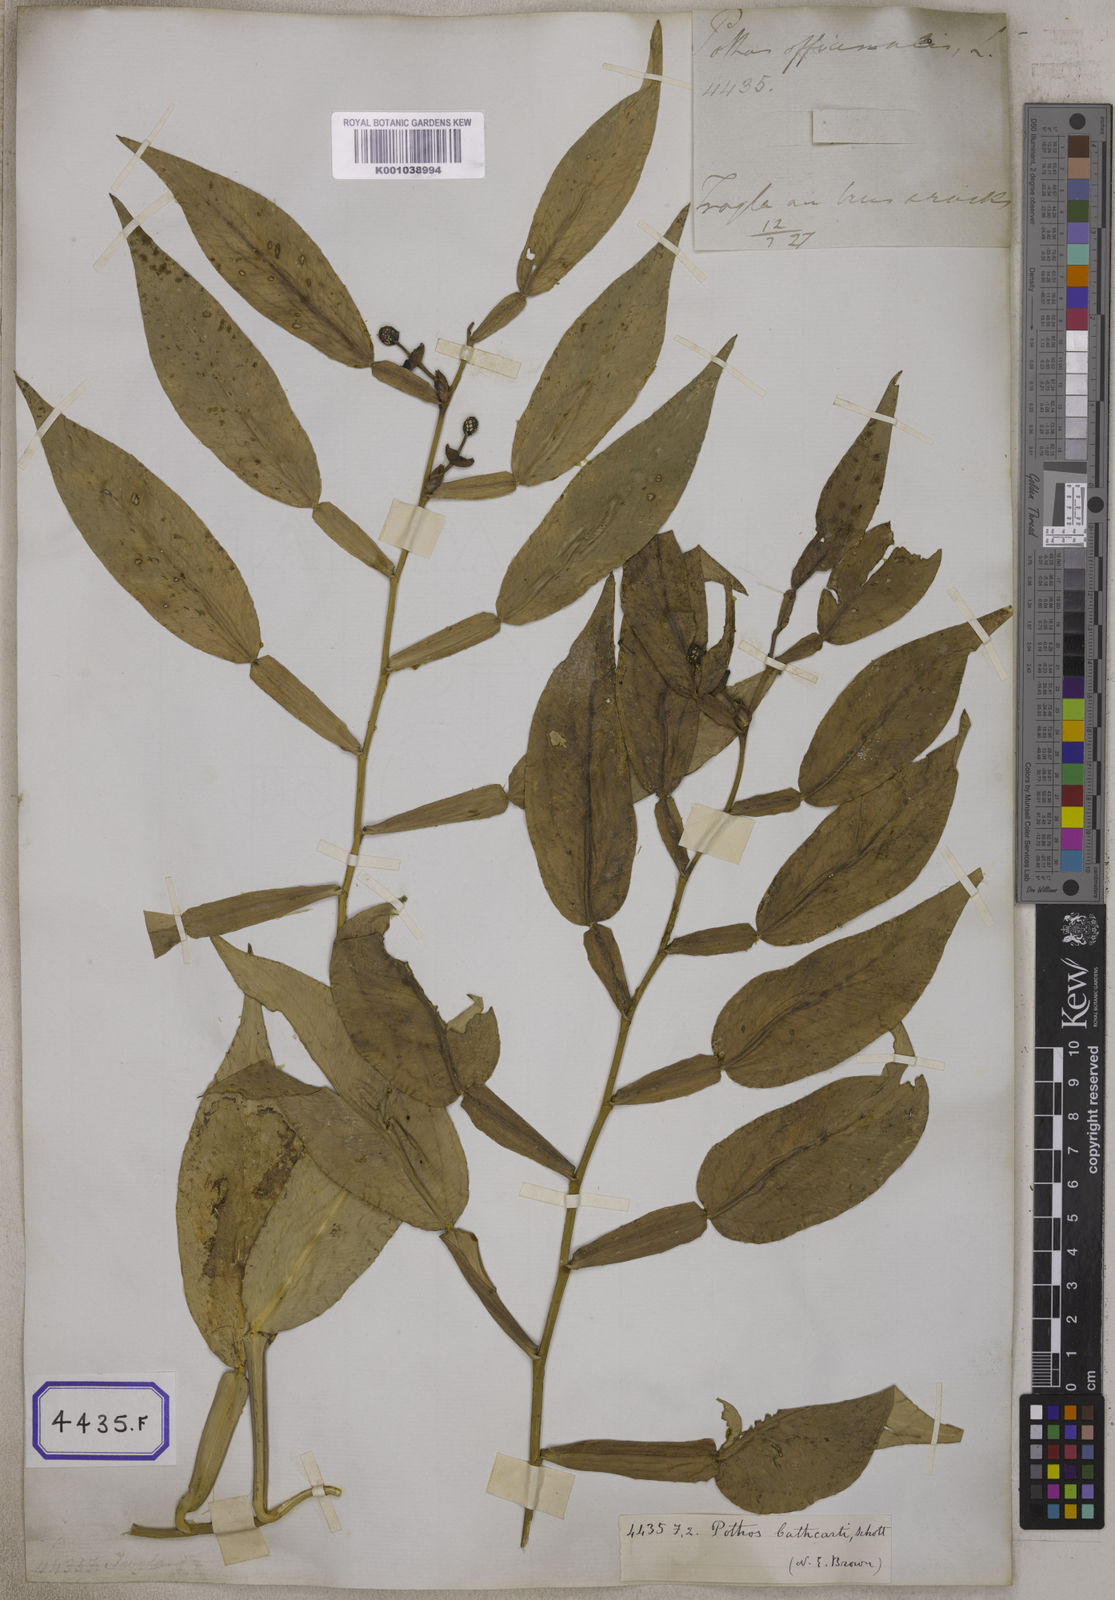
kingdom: Plantae
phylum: Tracheophyta
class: Liliopsida
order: Alismatales
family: Araceae
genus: Pothos
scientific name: Pothos scandens
